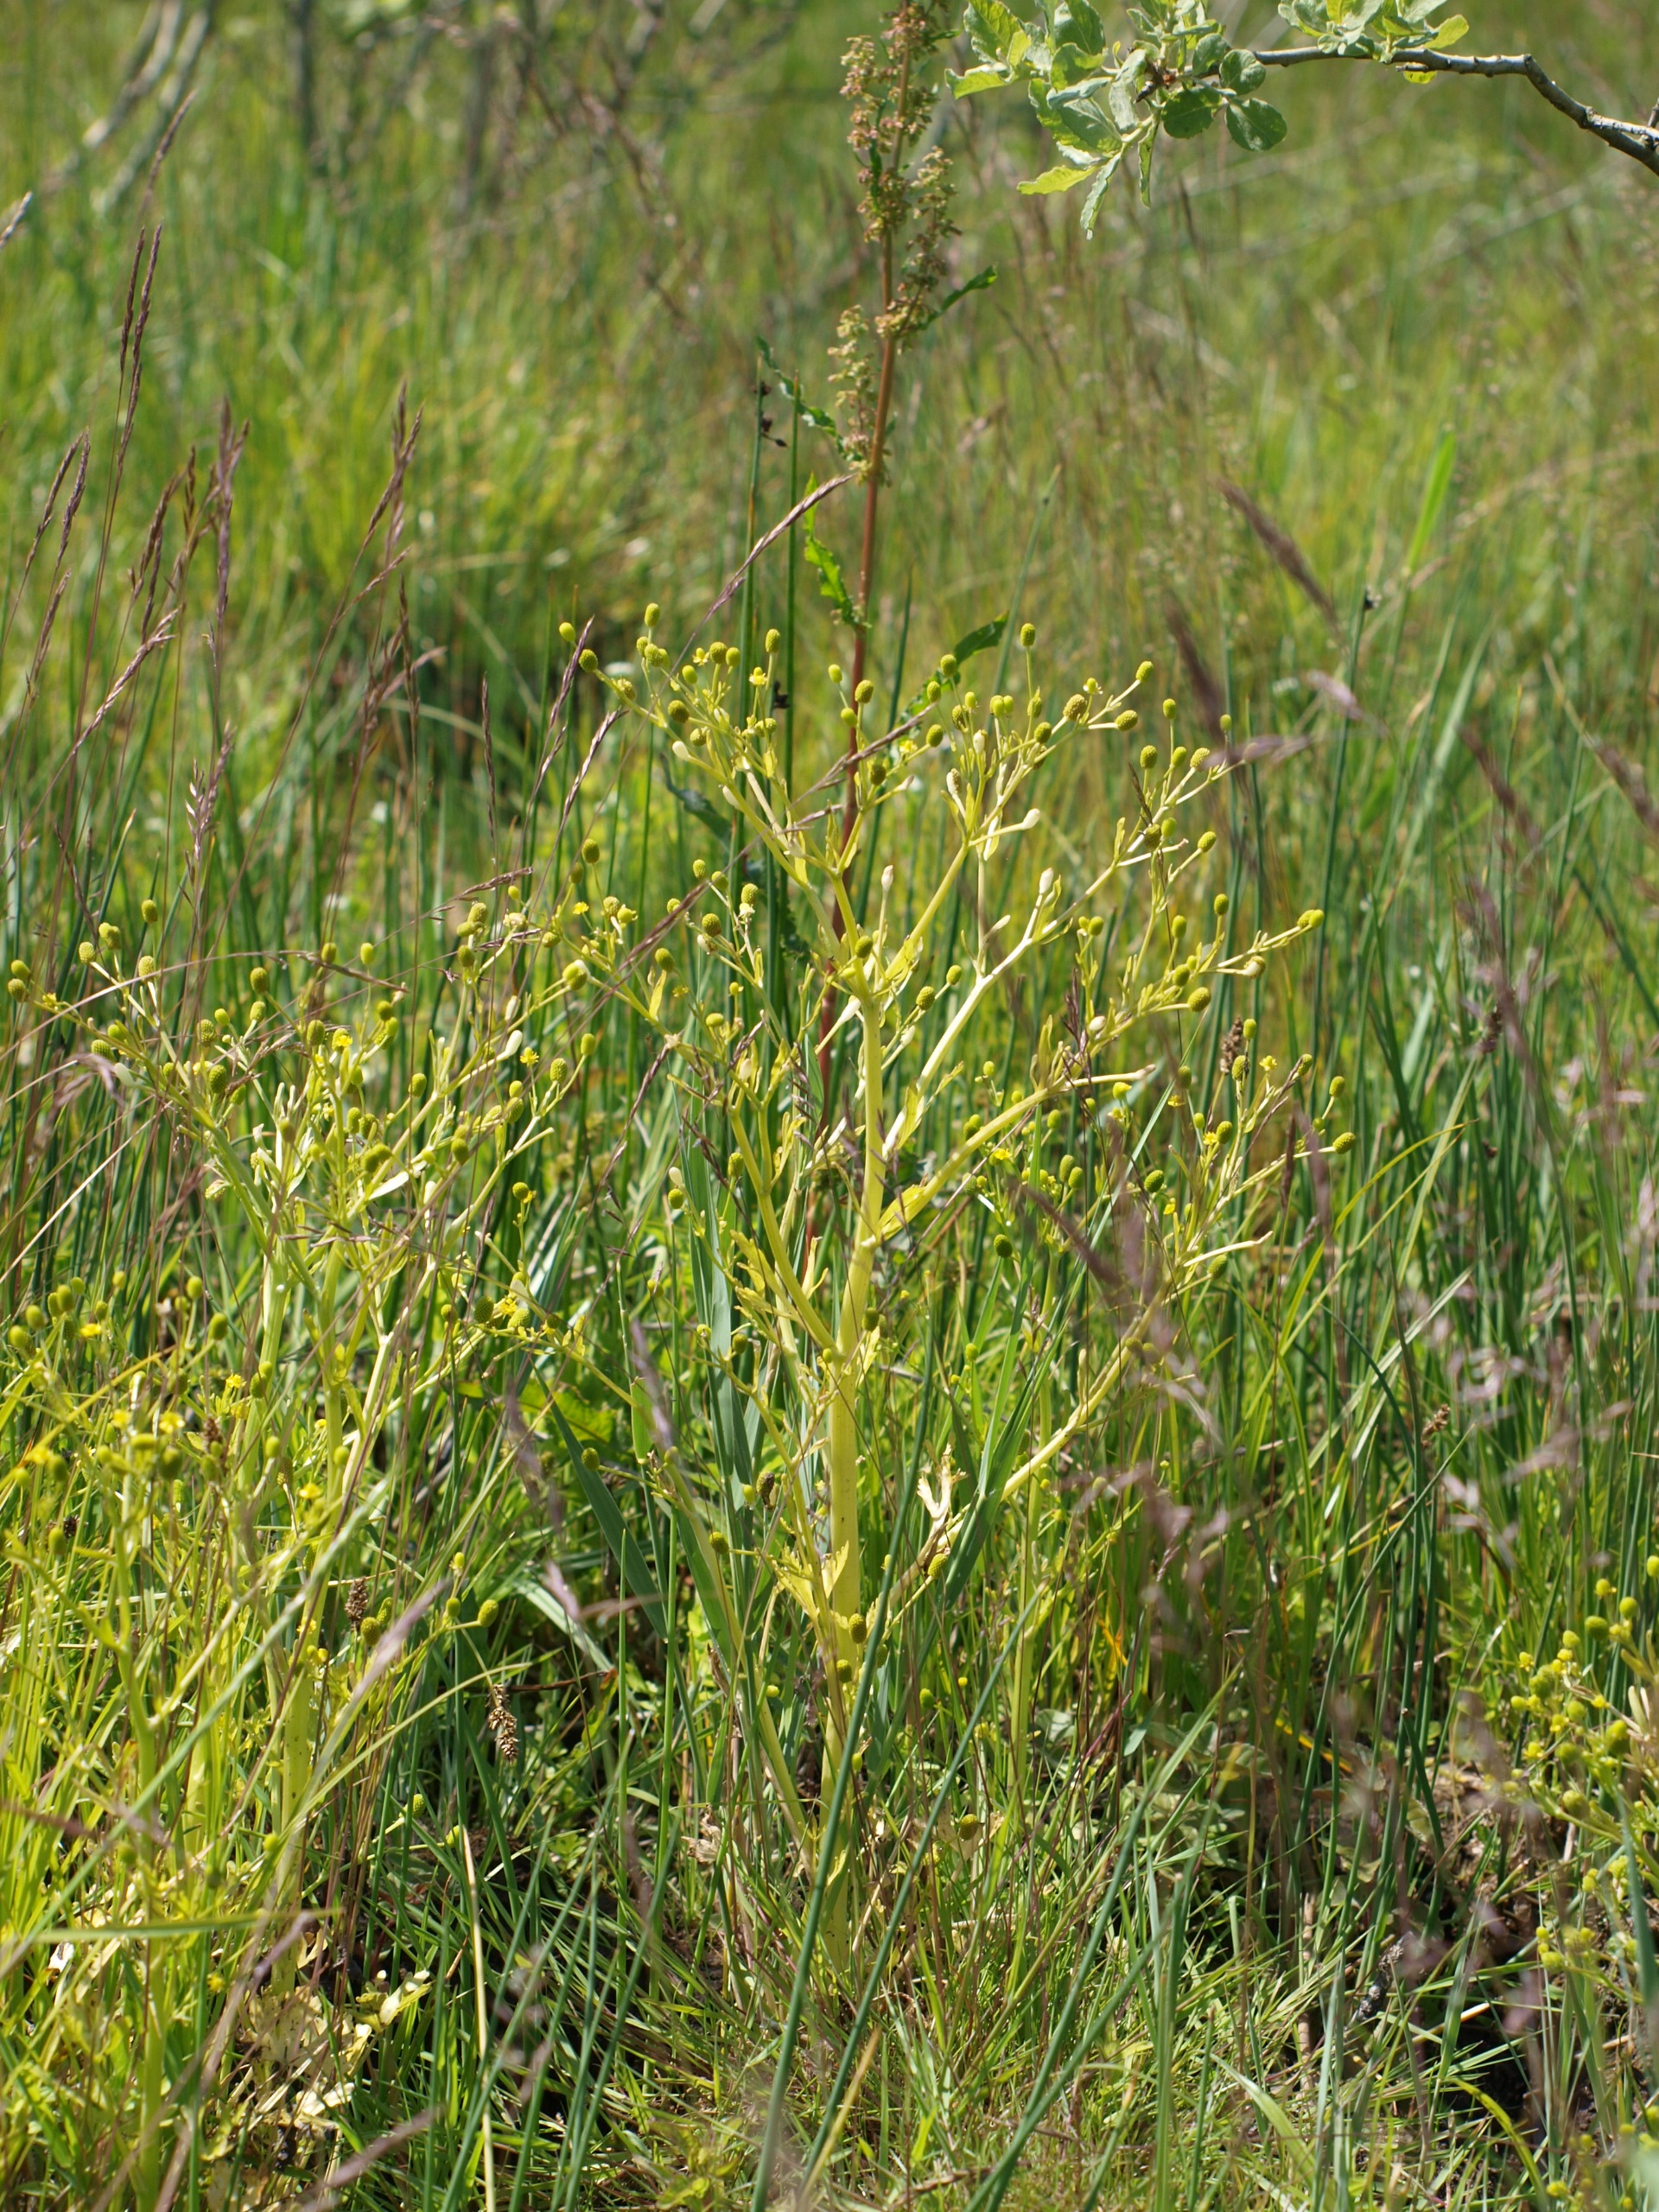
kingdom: Plantae
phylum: Tracheophyta
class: Magnoliopsida
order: Ranunculales
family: Ranunculaceae
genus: Ranunculus
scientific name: Ranunculus sceleratus
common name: Tigger-ranunkel
